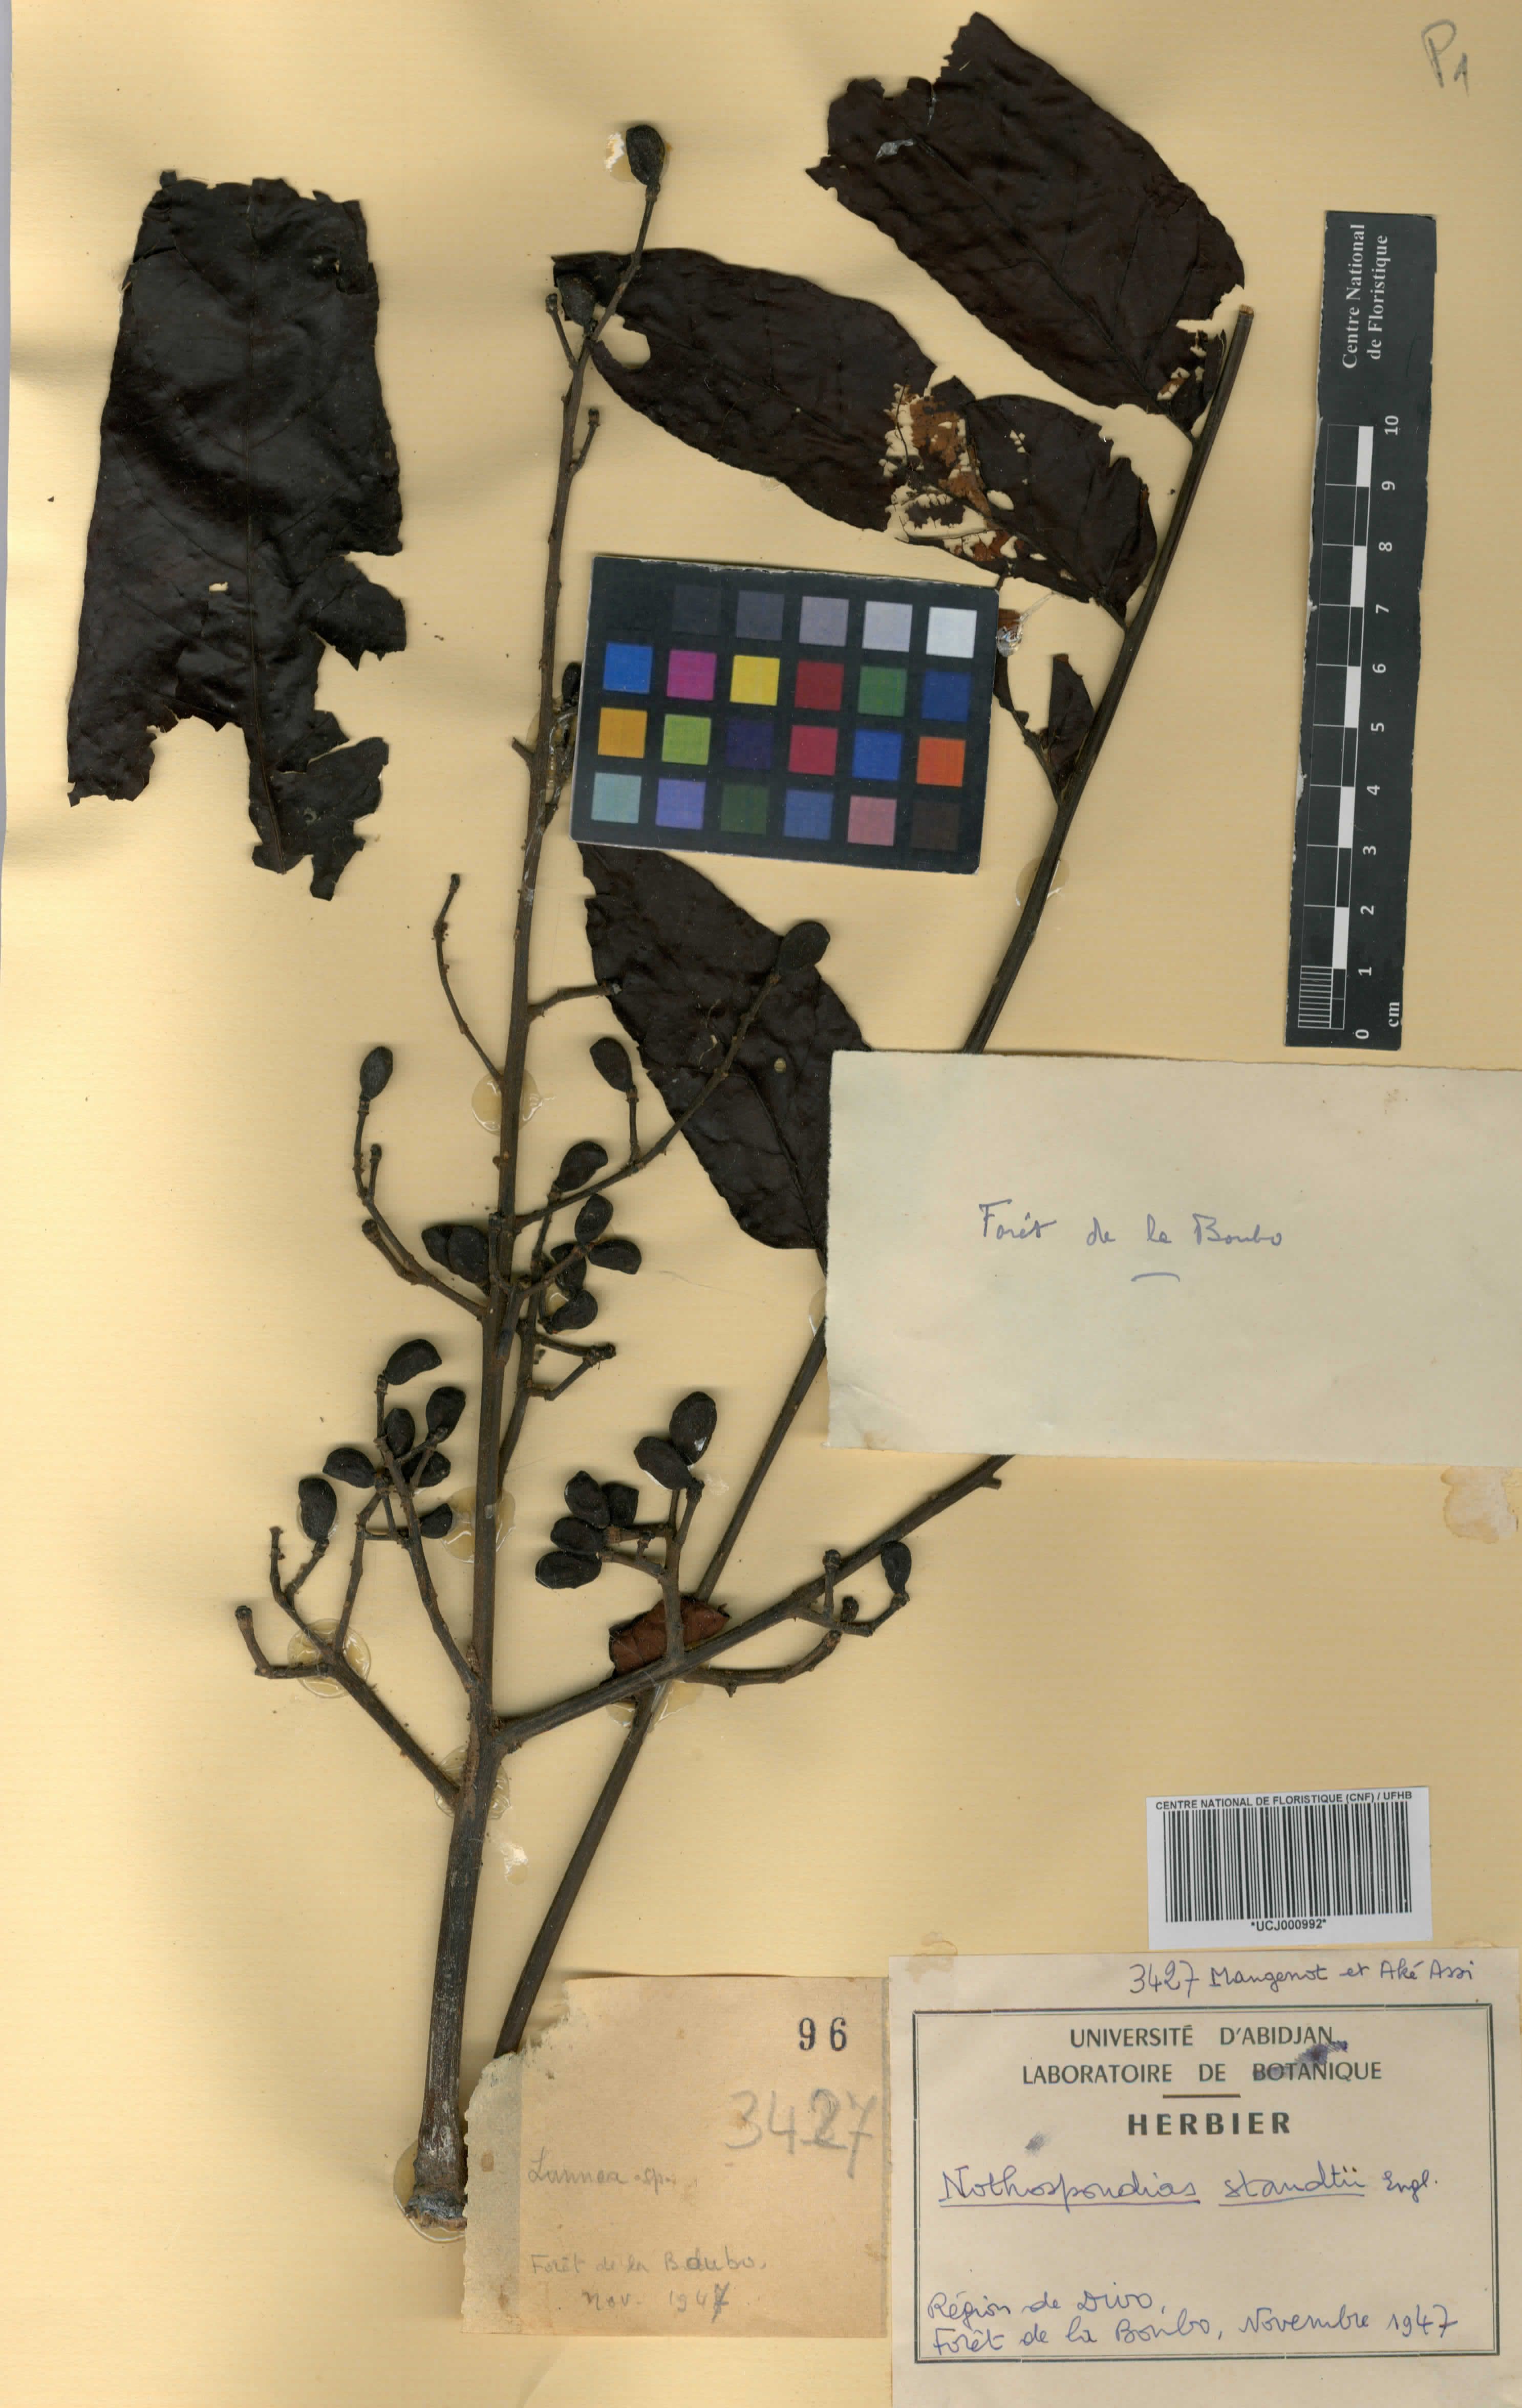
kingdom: Plantae
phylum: Tracheophyta
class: Magnoliopsida
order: Sapindales
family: Simaroubaceae
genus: Nothospondias
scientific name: Nothospondias staudtii
